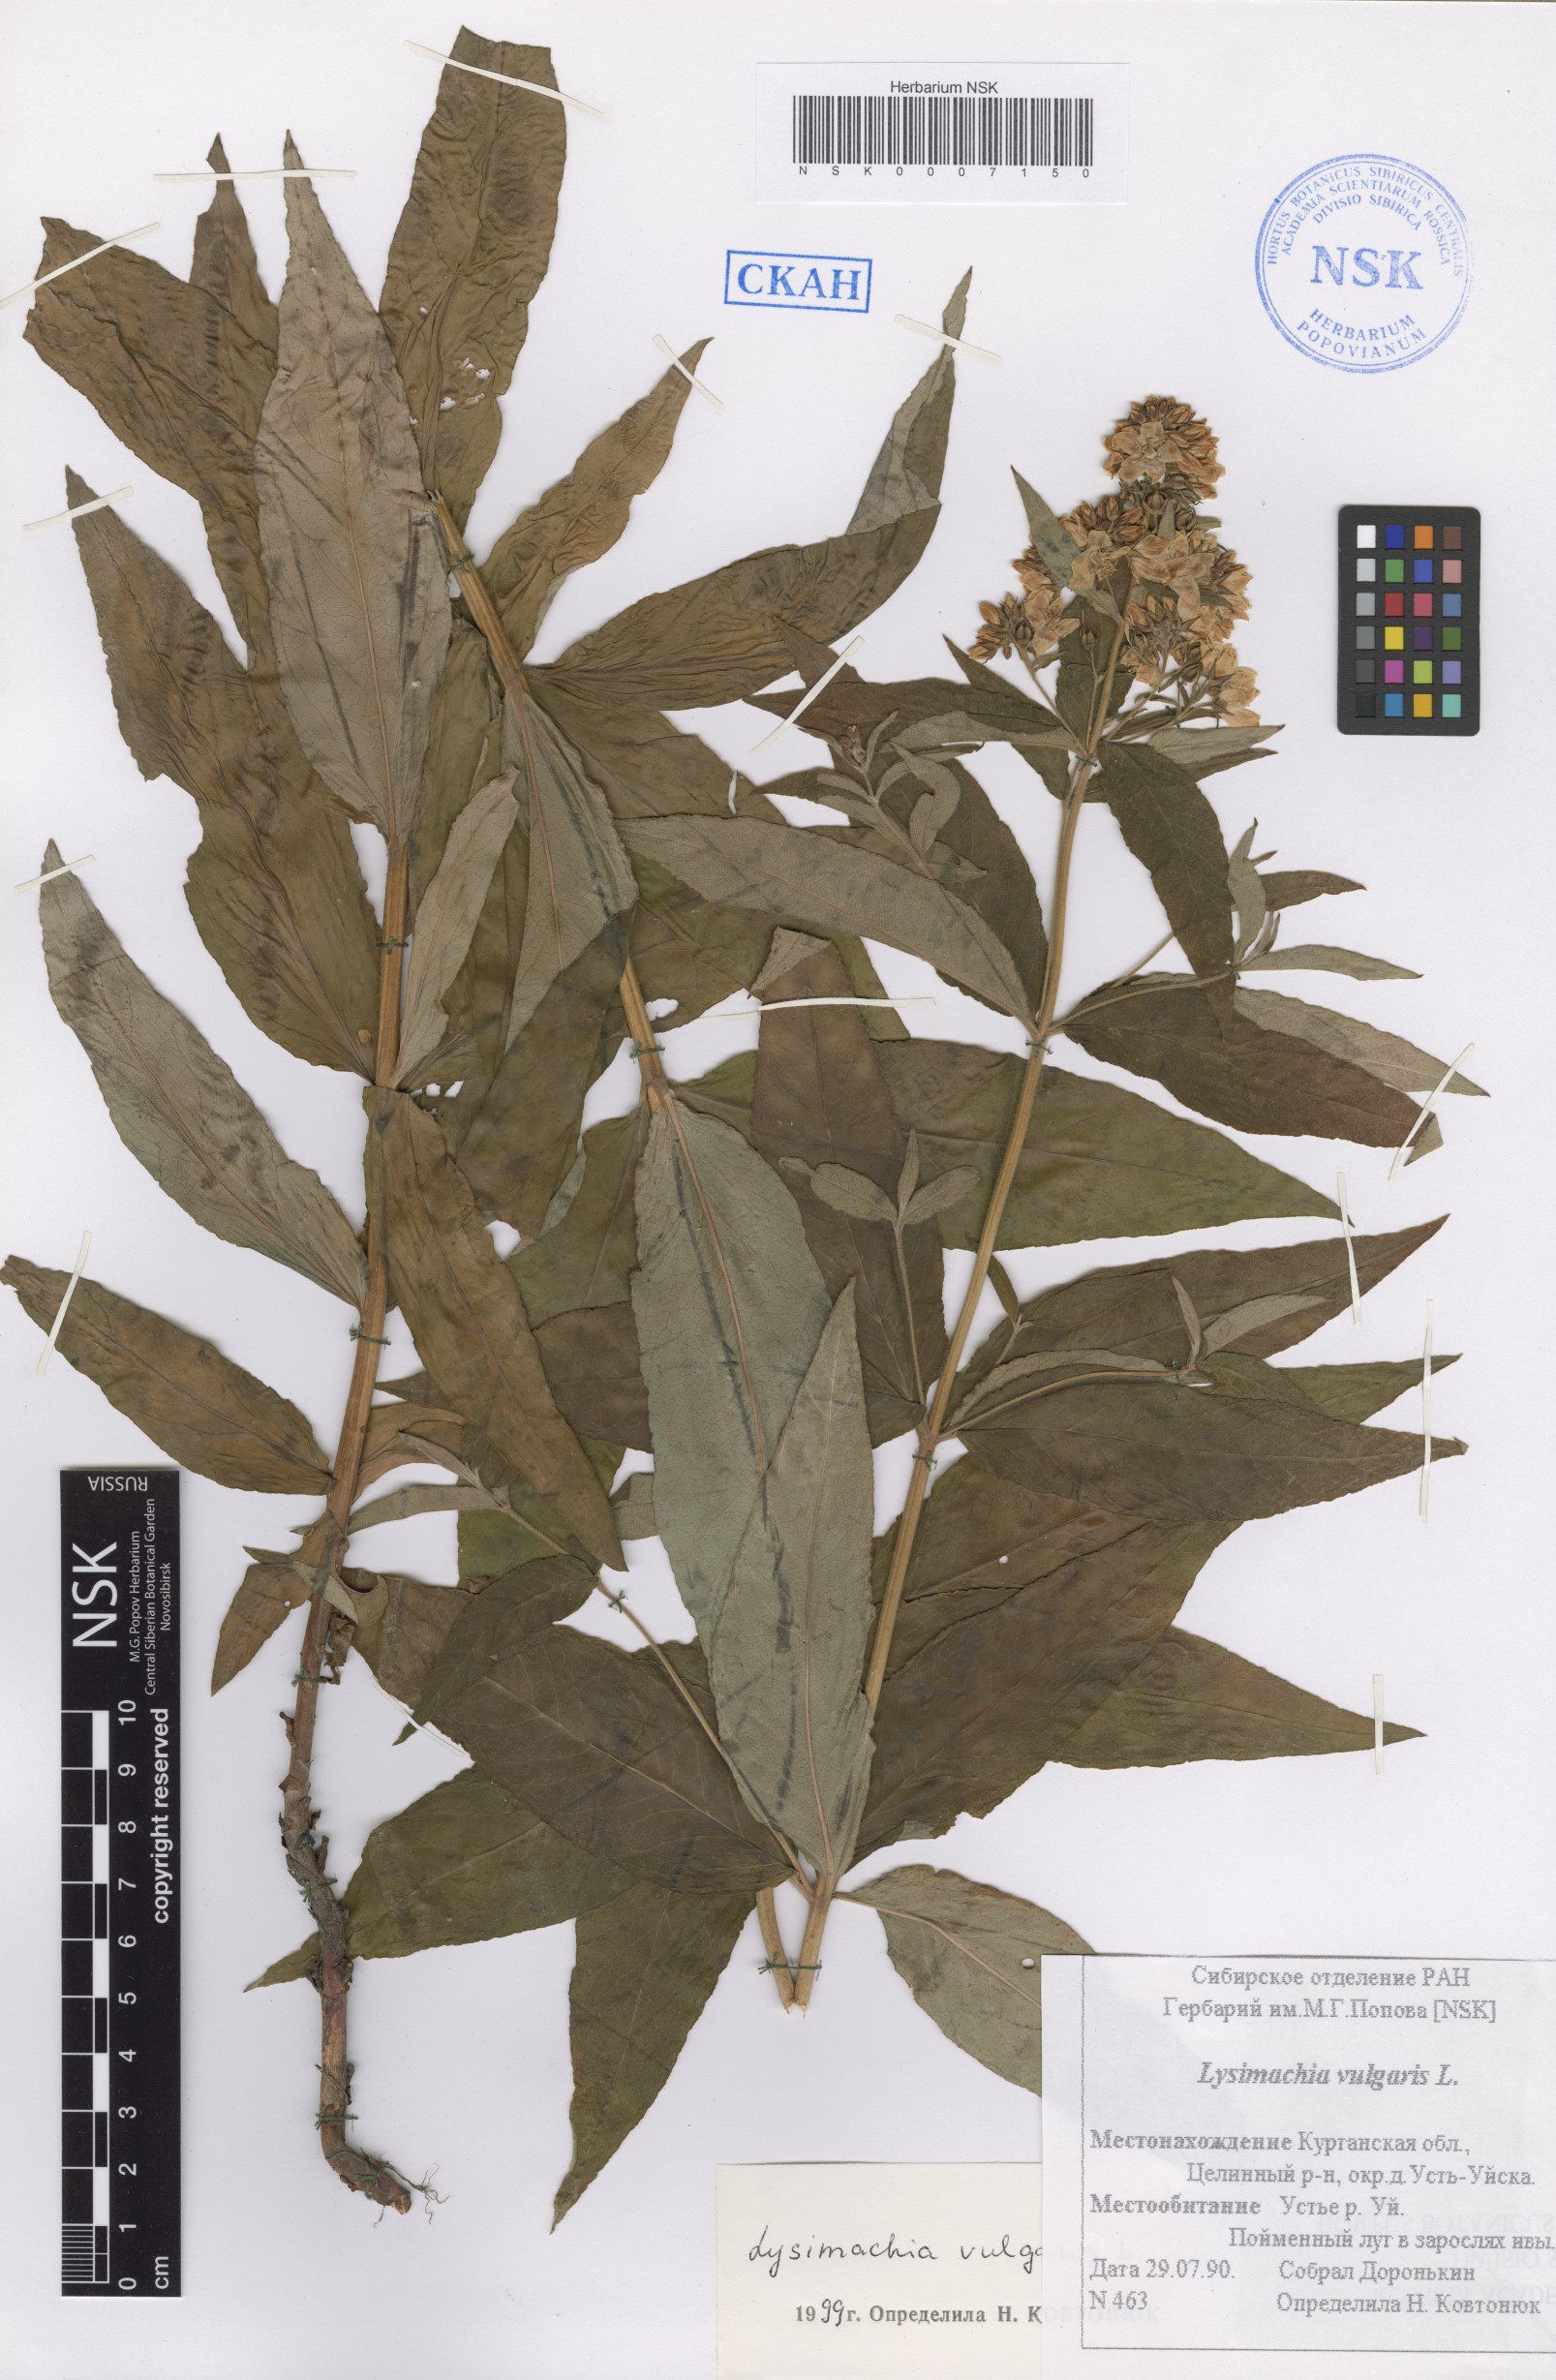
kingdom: Plantae
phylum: Tracheophyta
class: Magnoliopsida
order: Ericales
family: Primulaceae
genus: Lysimachia
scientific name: Lysimachia vulgaris
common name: Yellow loosestrife
